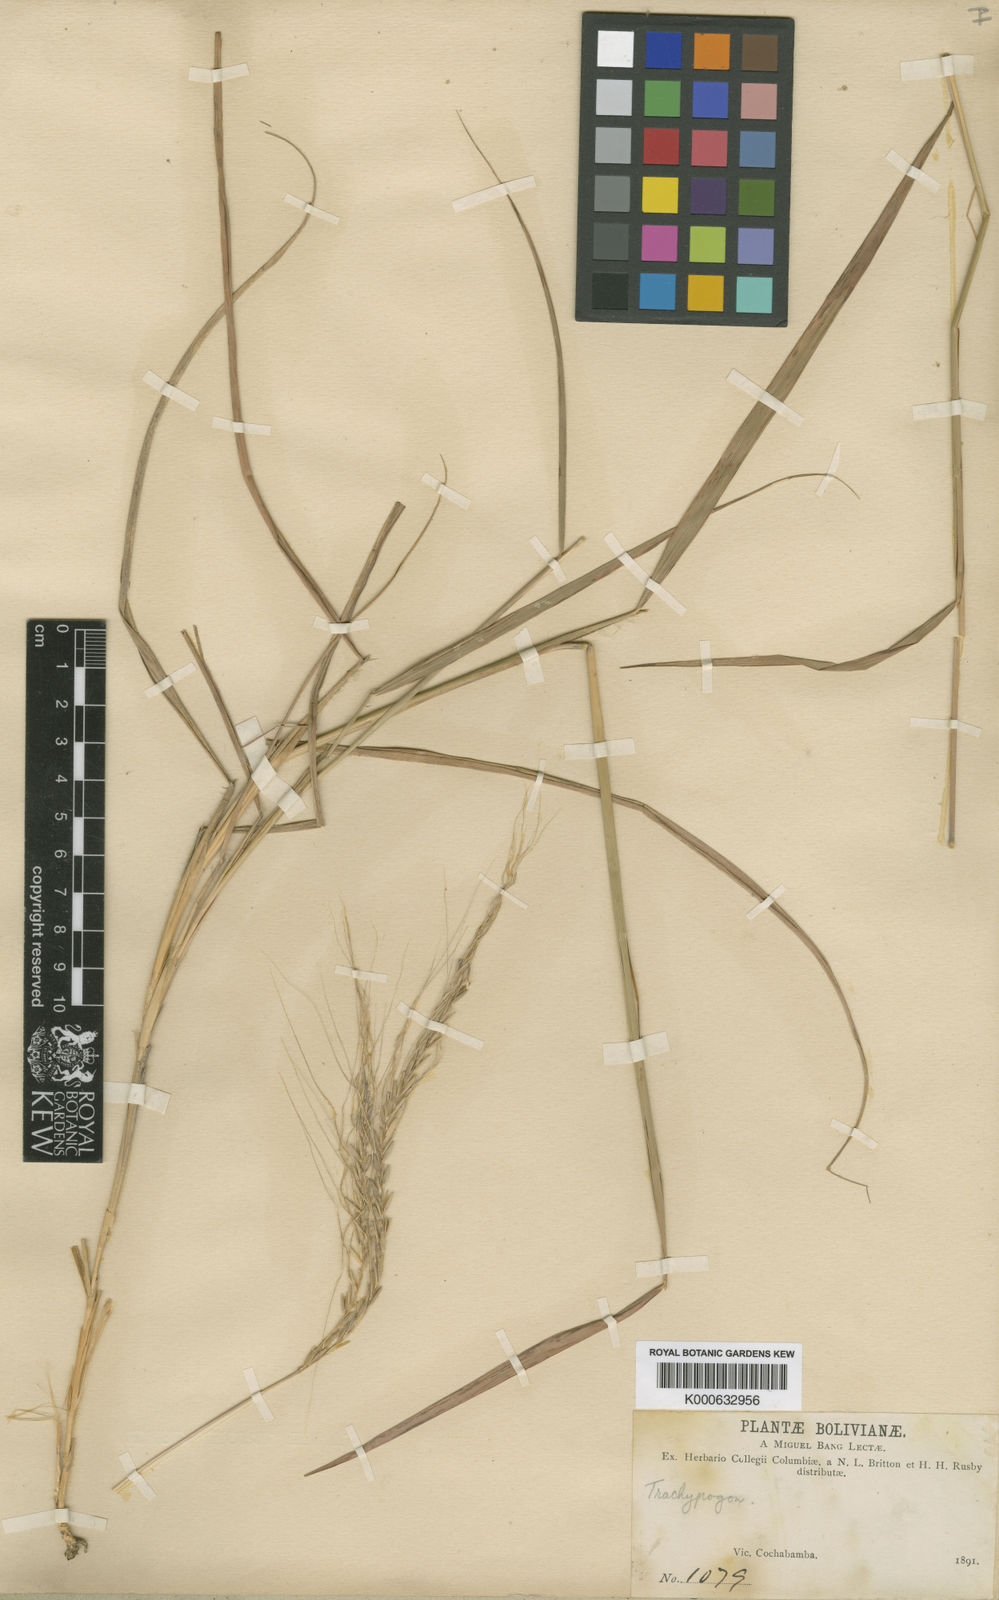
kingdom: Plantae
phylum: Tracheophyta
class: Liliopsida
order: Poales
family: Poaceae
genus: Trachypogon
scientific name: Trachypogon spicatus
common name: Crinkle-awn
